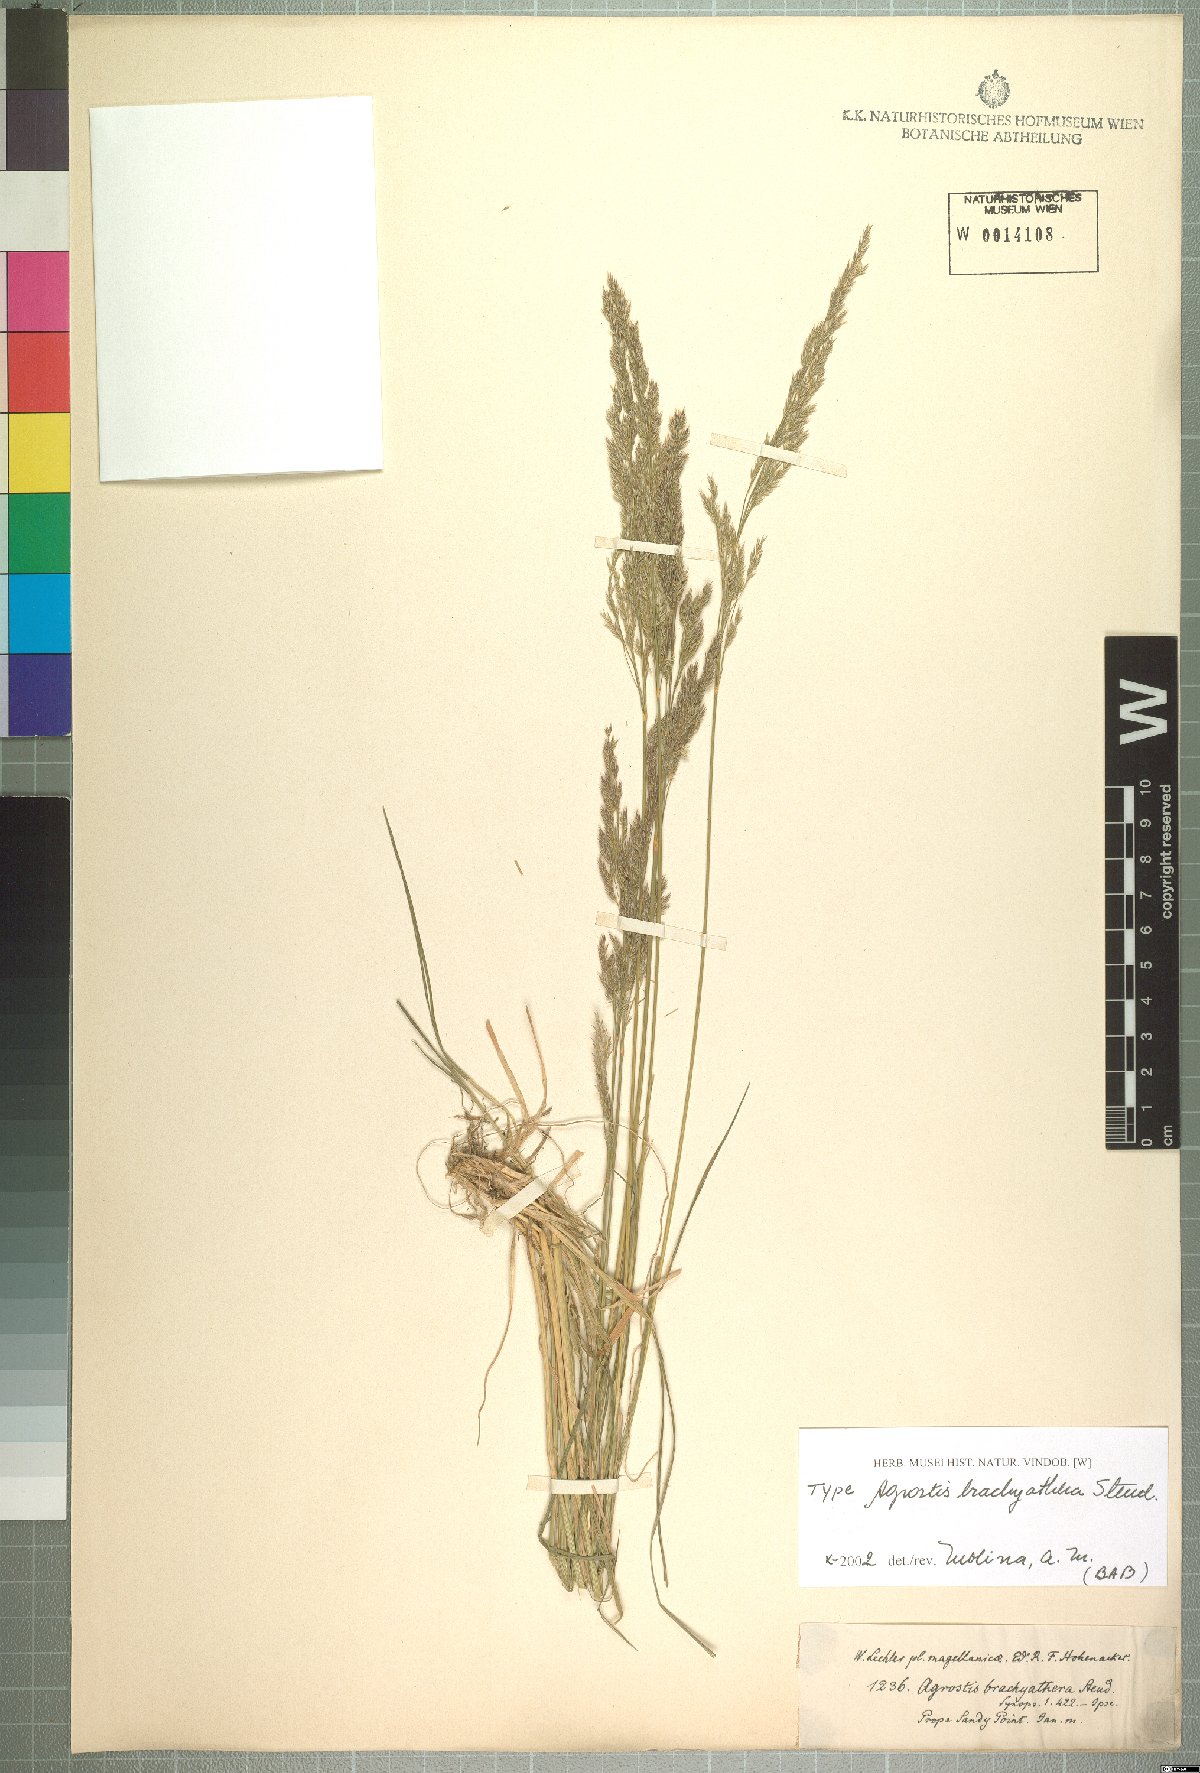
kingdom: Plantae
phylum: Tracheophyta
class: Liliopsida
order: Poales
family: Poaceae
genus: Agrostis
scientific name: Agrostis brachyathera
